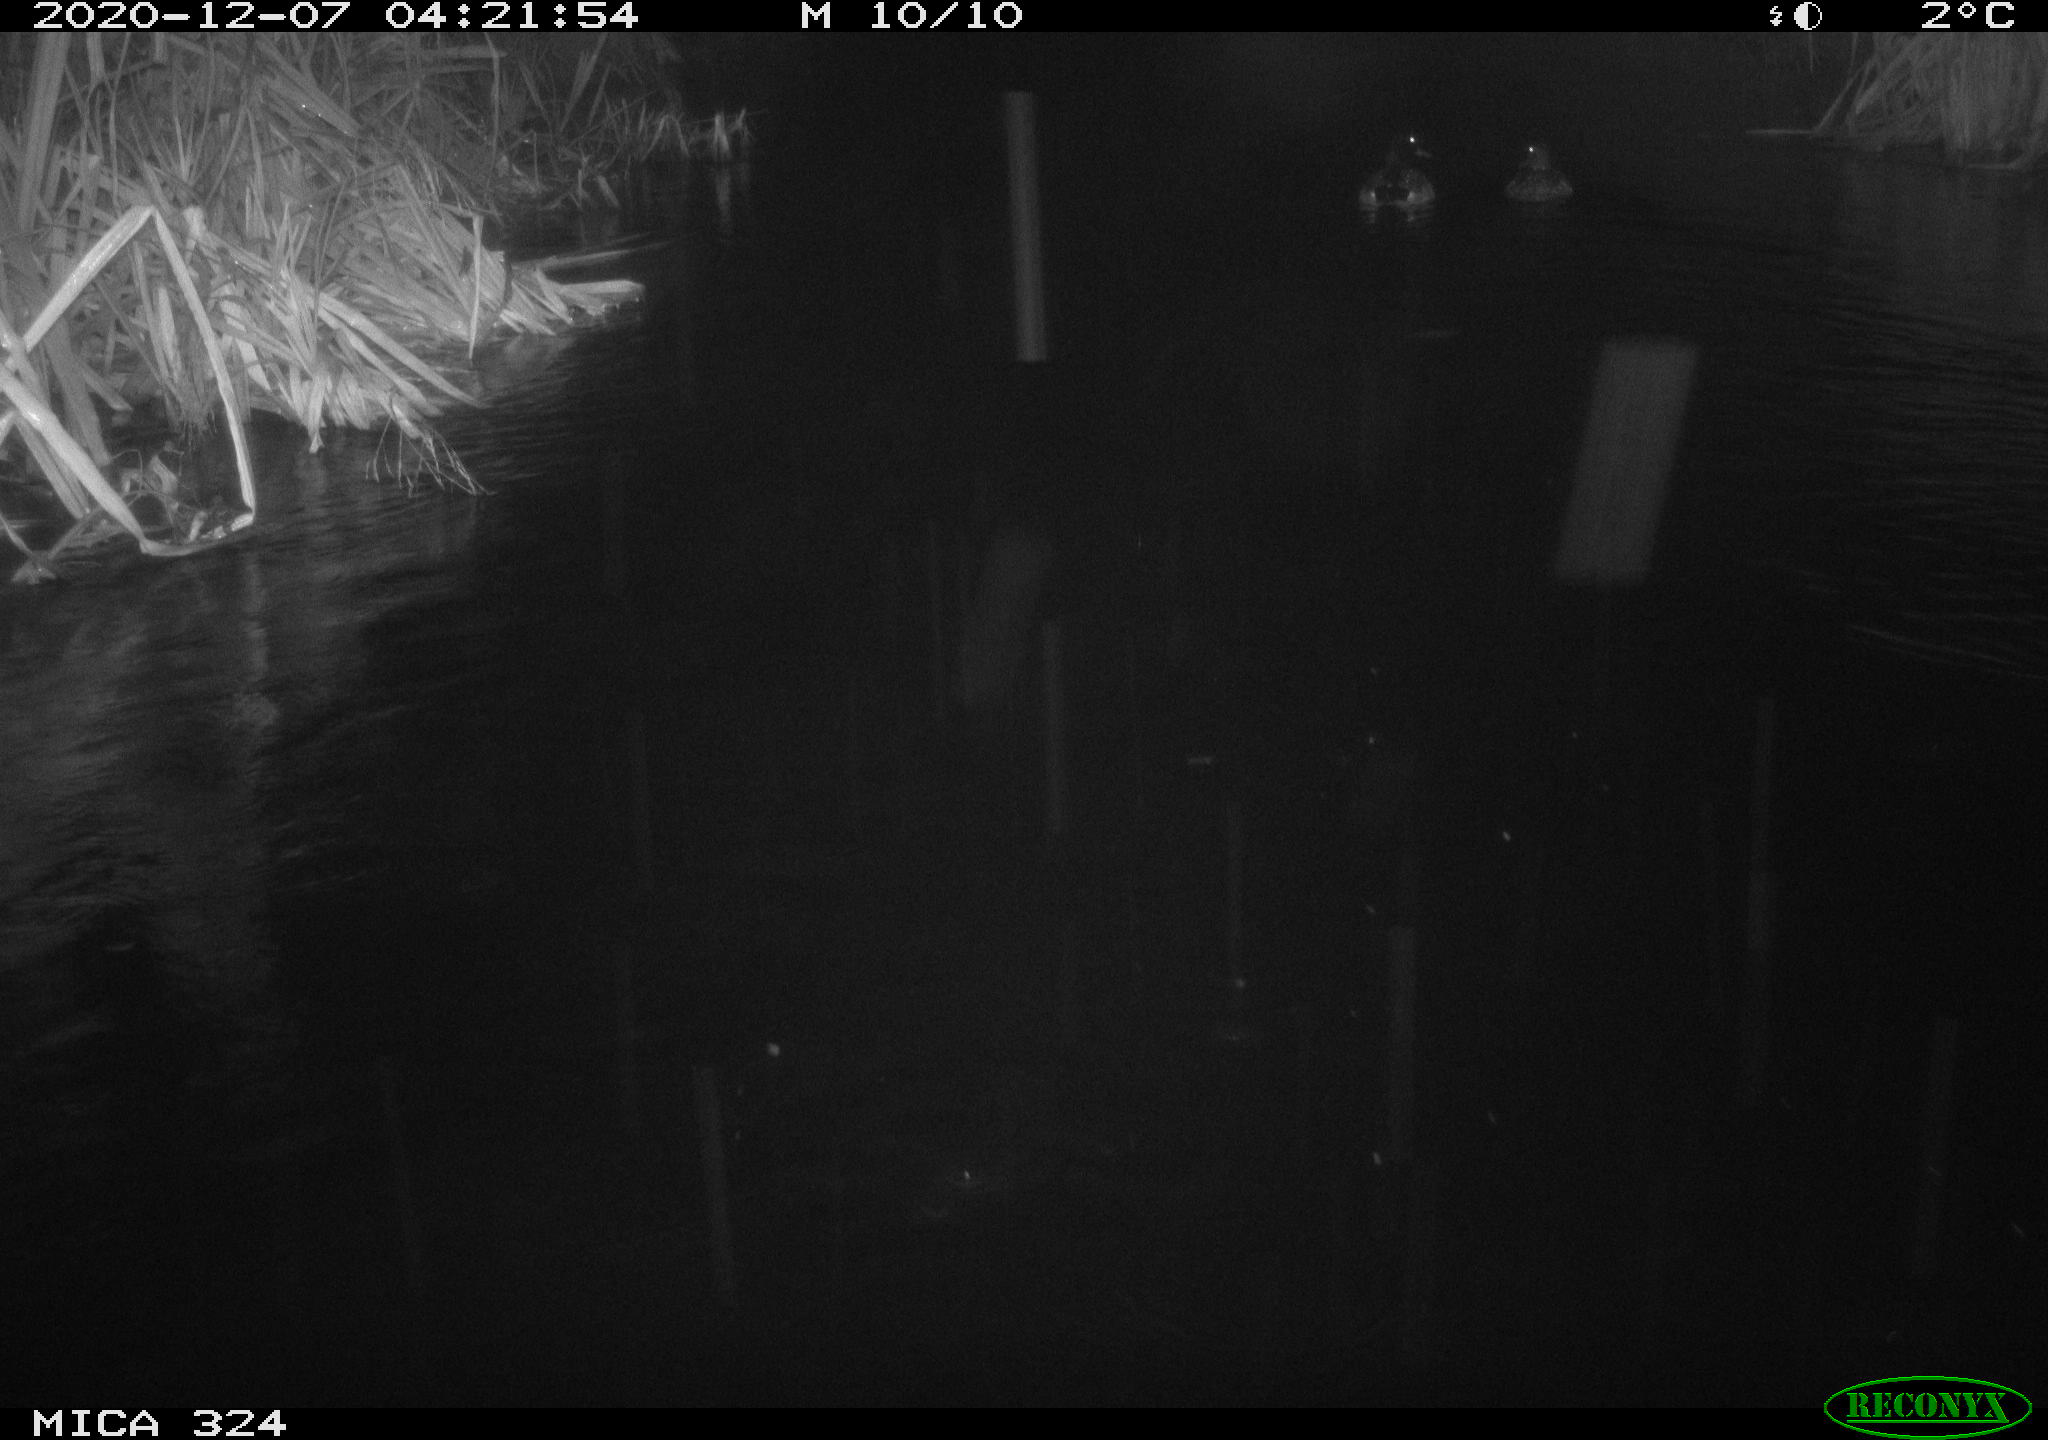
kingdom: Animalia
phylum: Chordata
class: Aves
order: Anseriformes
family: Anatidae
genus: Anas
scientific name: Anas platyrhynchos
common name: Mallard
